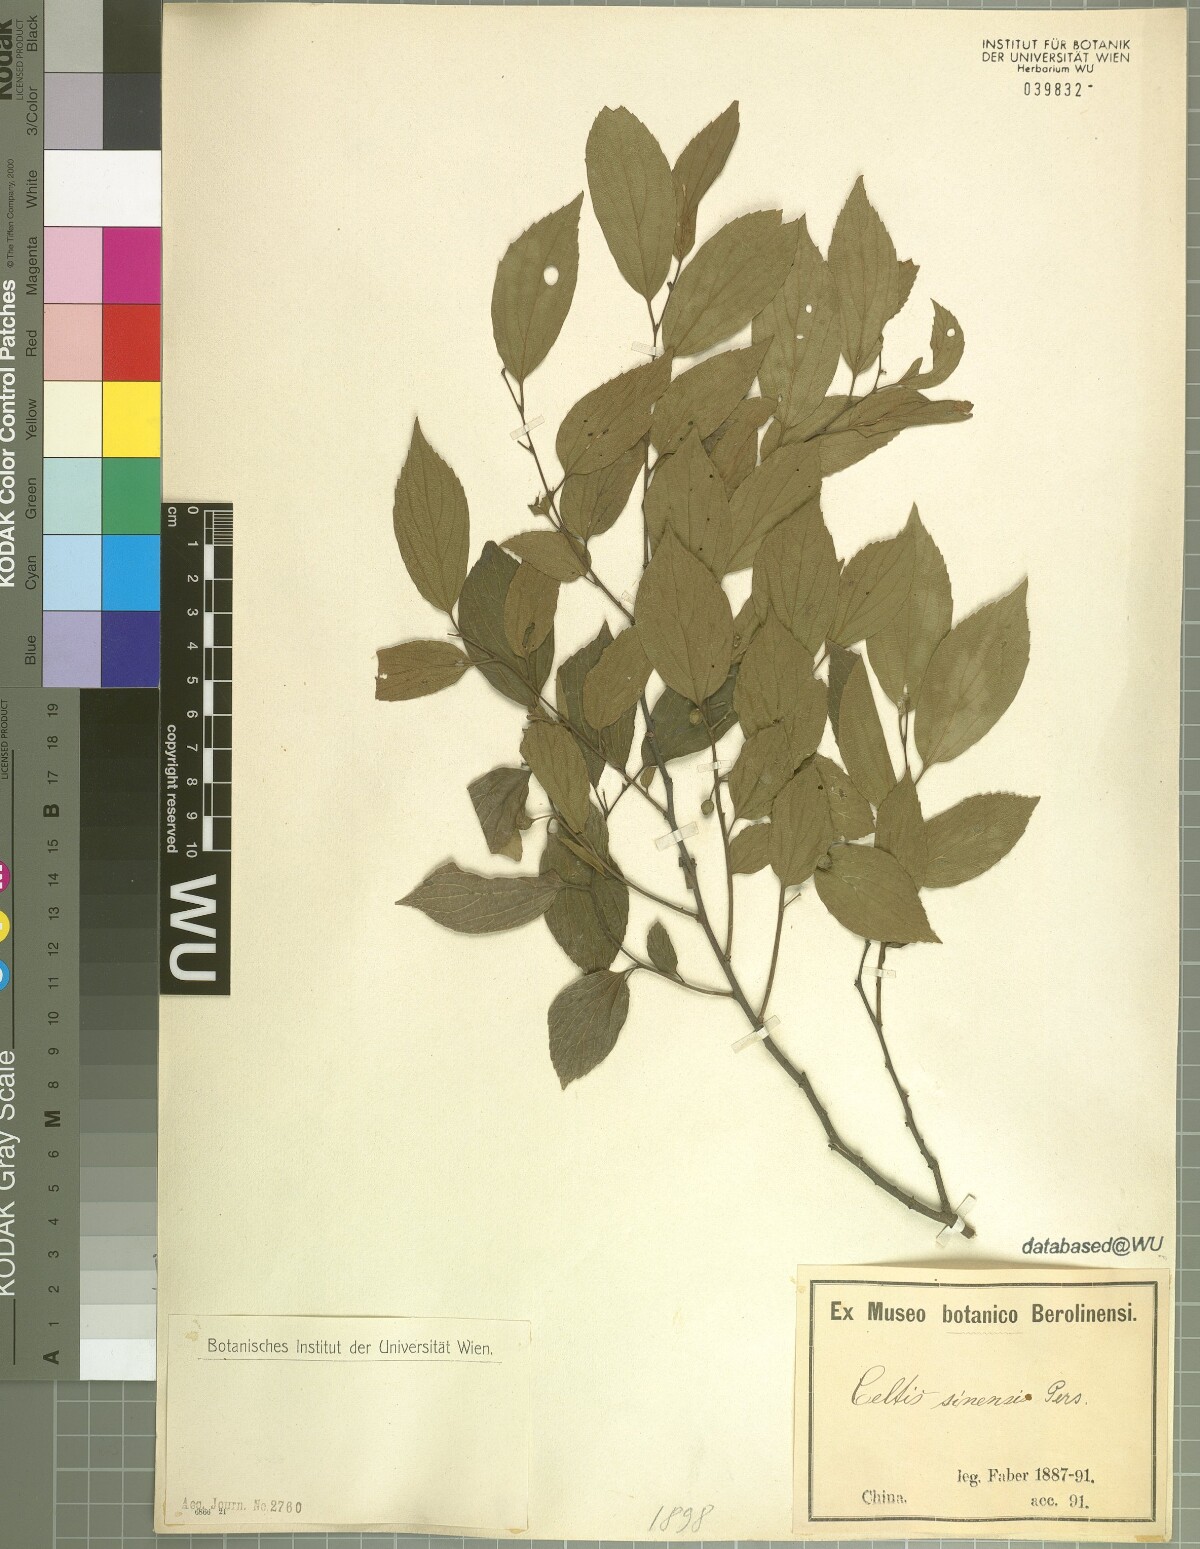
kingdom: Plantae
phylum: Tracheophyta
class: Magnoliopsida
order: Rosales
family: Cannabaceae
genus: Celtis
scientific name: Celtis sinensis
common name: Chinese hackberry
